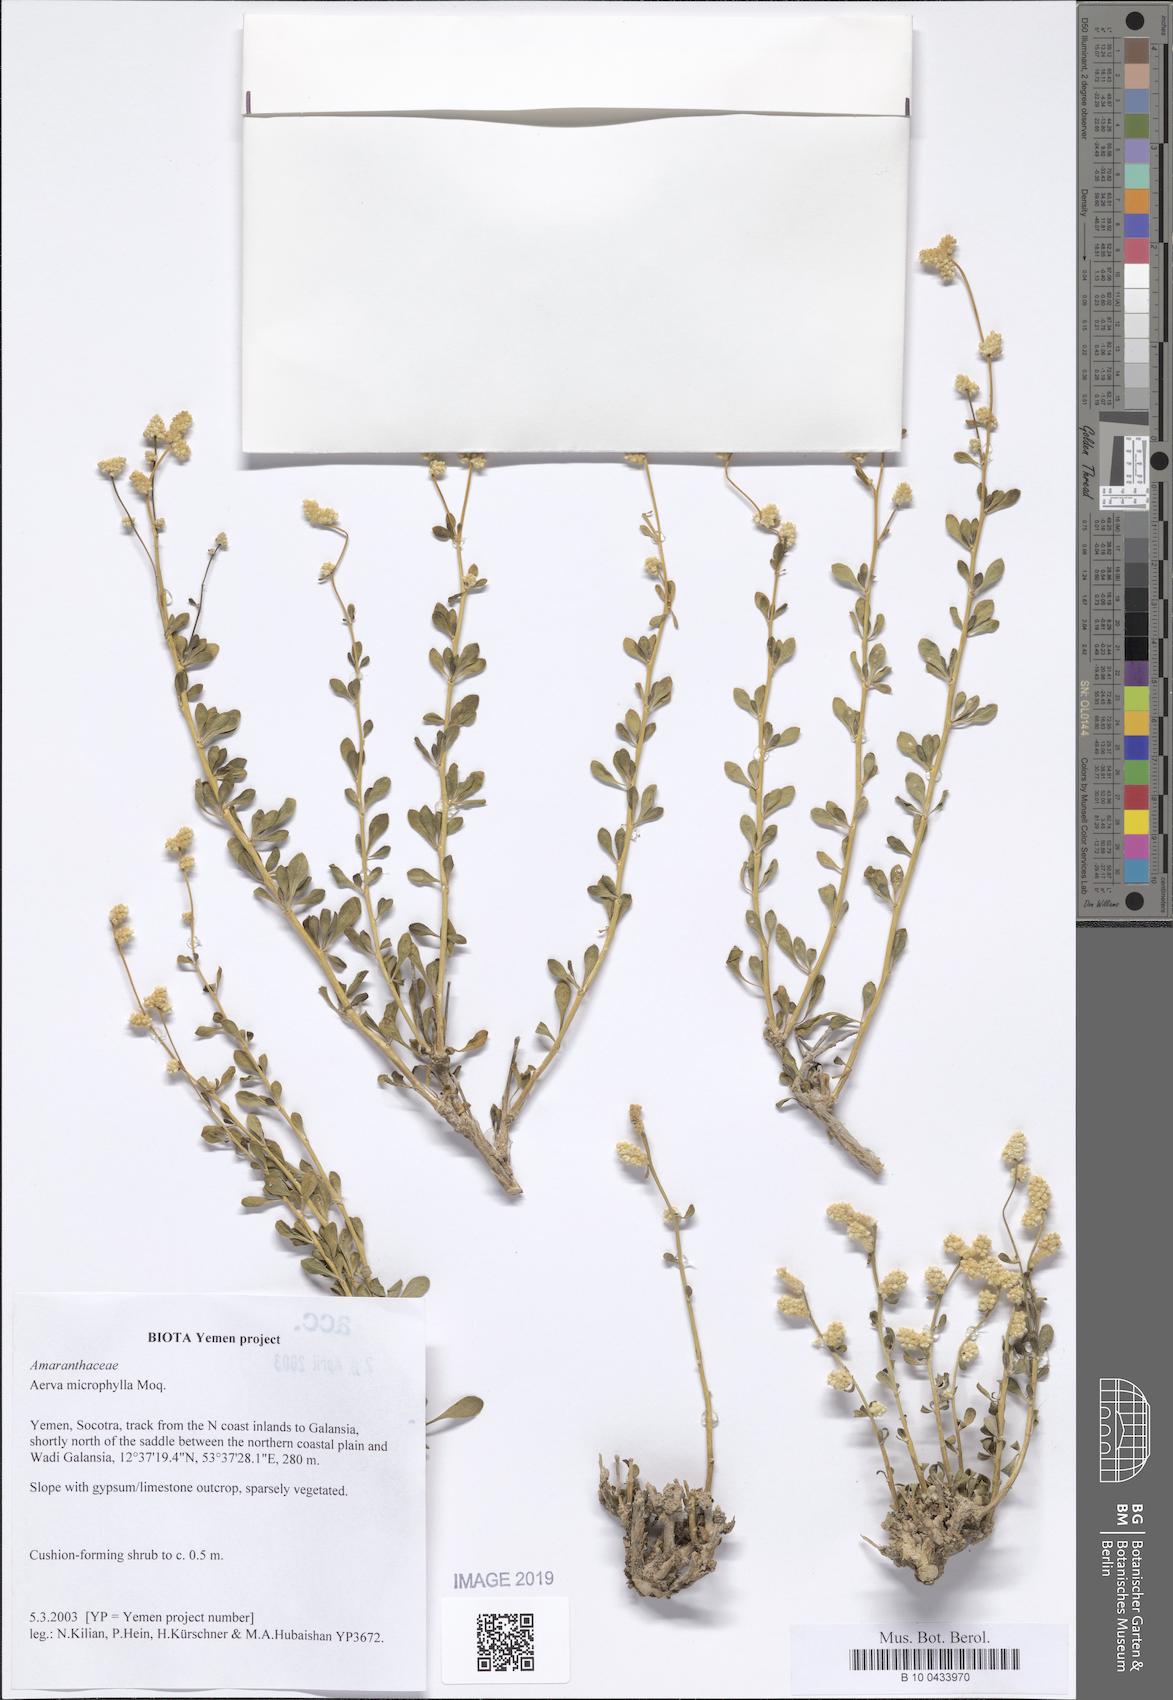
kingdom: Plantae
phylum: Tracheophyta
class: Magnoliopsida
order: Caryophyllales
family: Amaranthaceae
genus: Paraerva
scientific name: Paraerva microphylla
